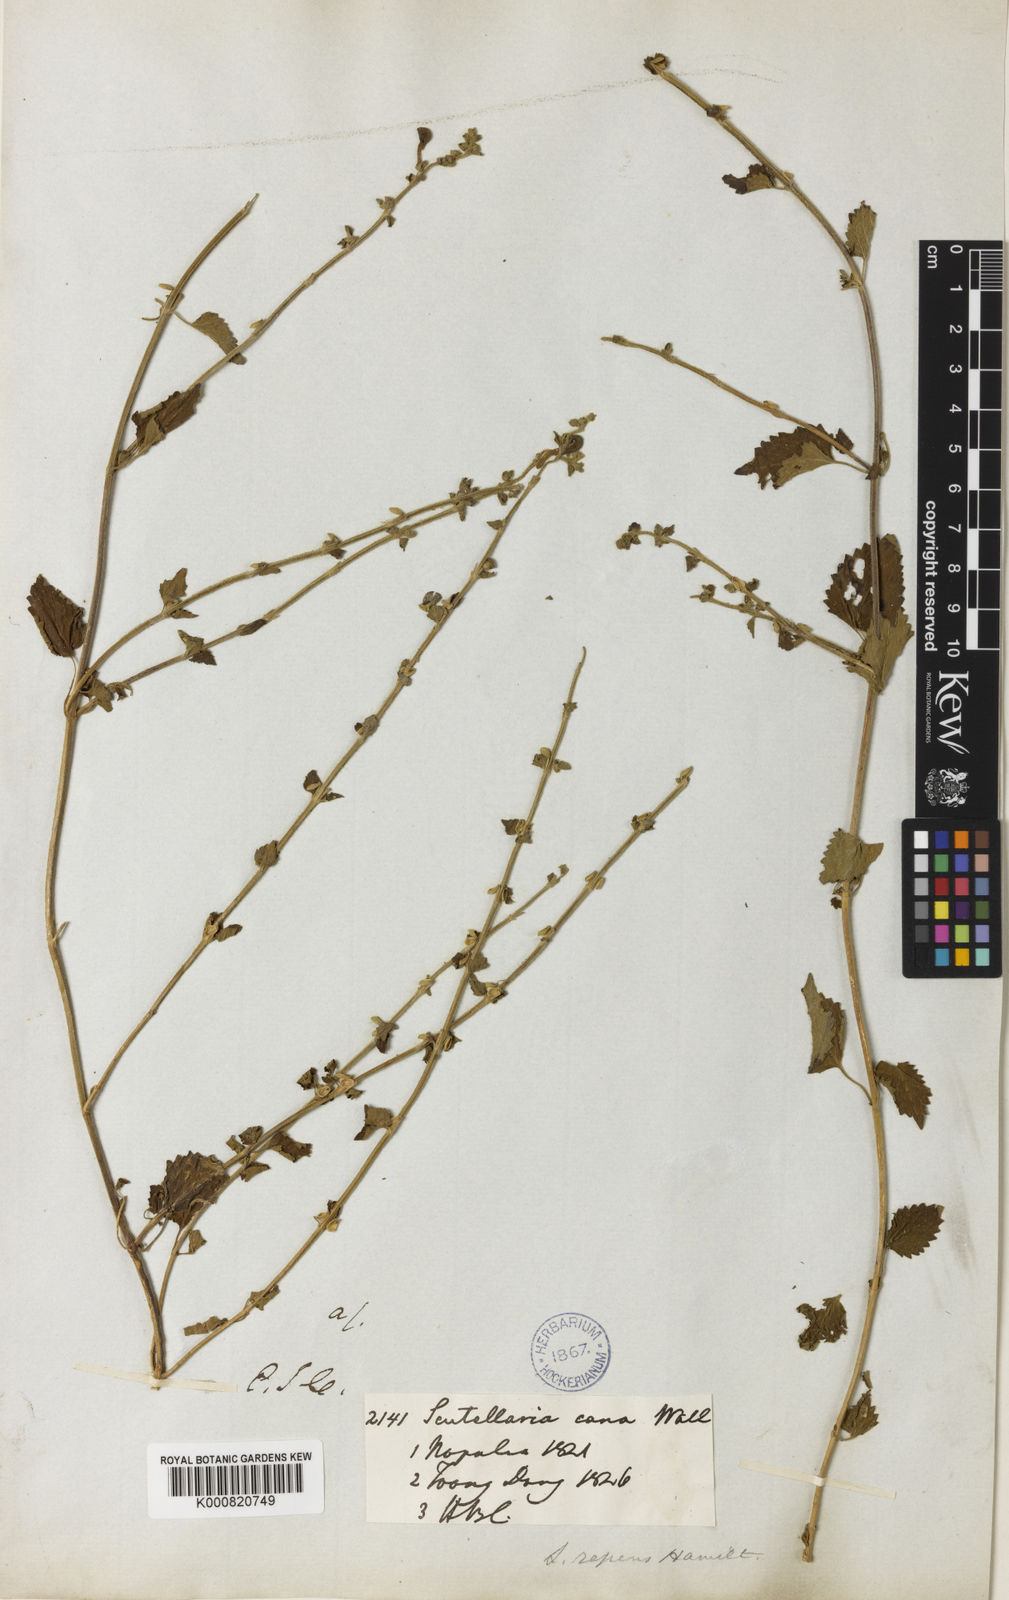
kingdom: Plantae
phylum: Tracheophyta
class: Magnoliopsida
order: Lamiales
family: Lamiaceae
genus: Scutellaria
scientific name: Scutellaria repens
